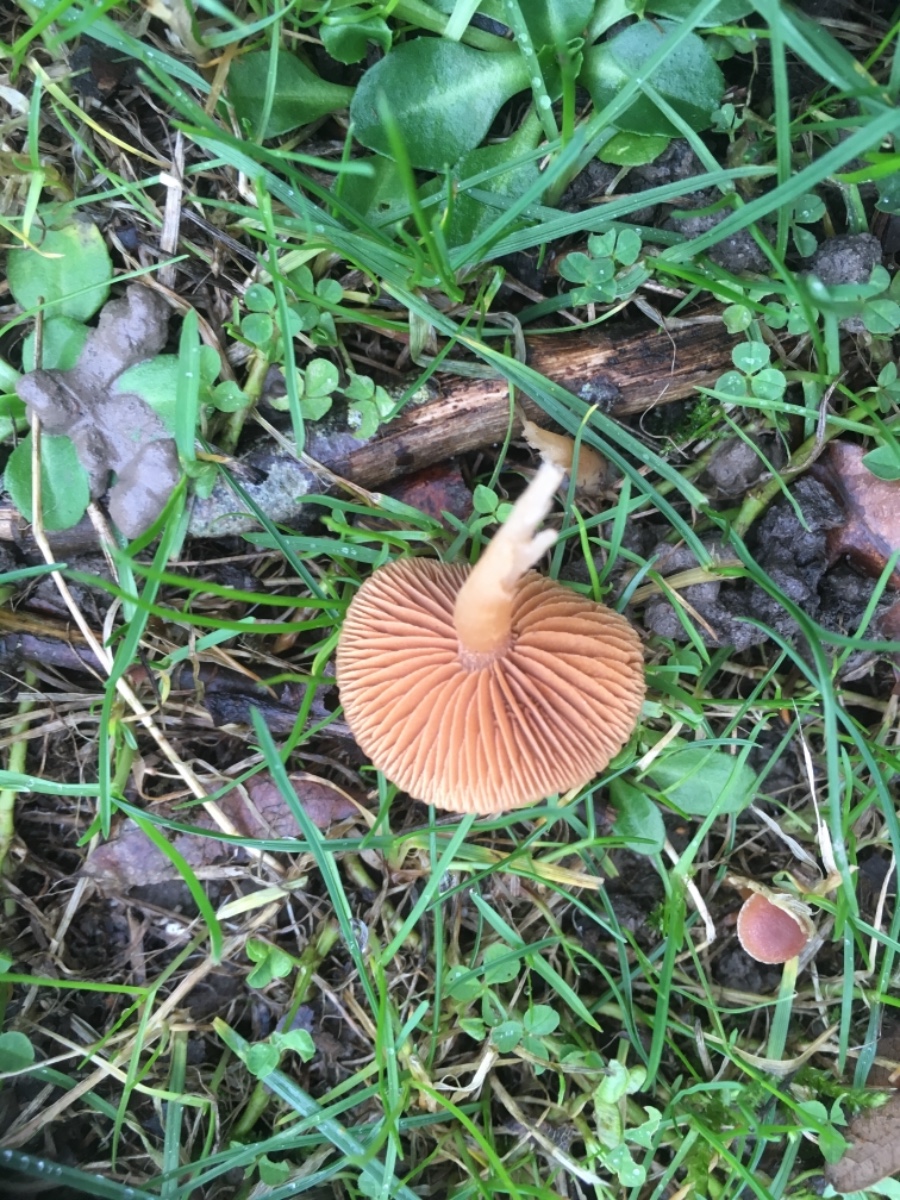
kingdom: Fungi
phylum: Basidiomycota
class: Agaricomycetes
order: Agaricales
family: Tubariaceae
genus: Tubaria
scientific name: Tubaria furfuracea
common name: kliddet fnughat
